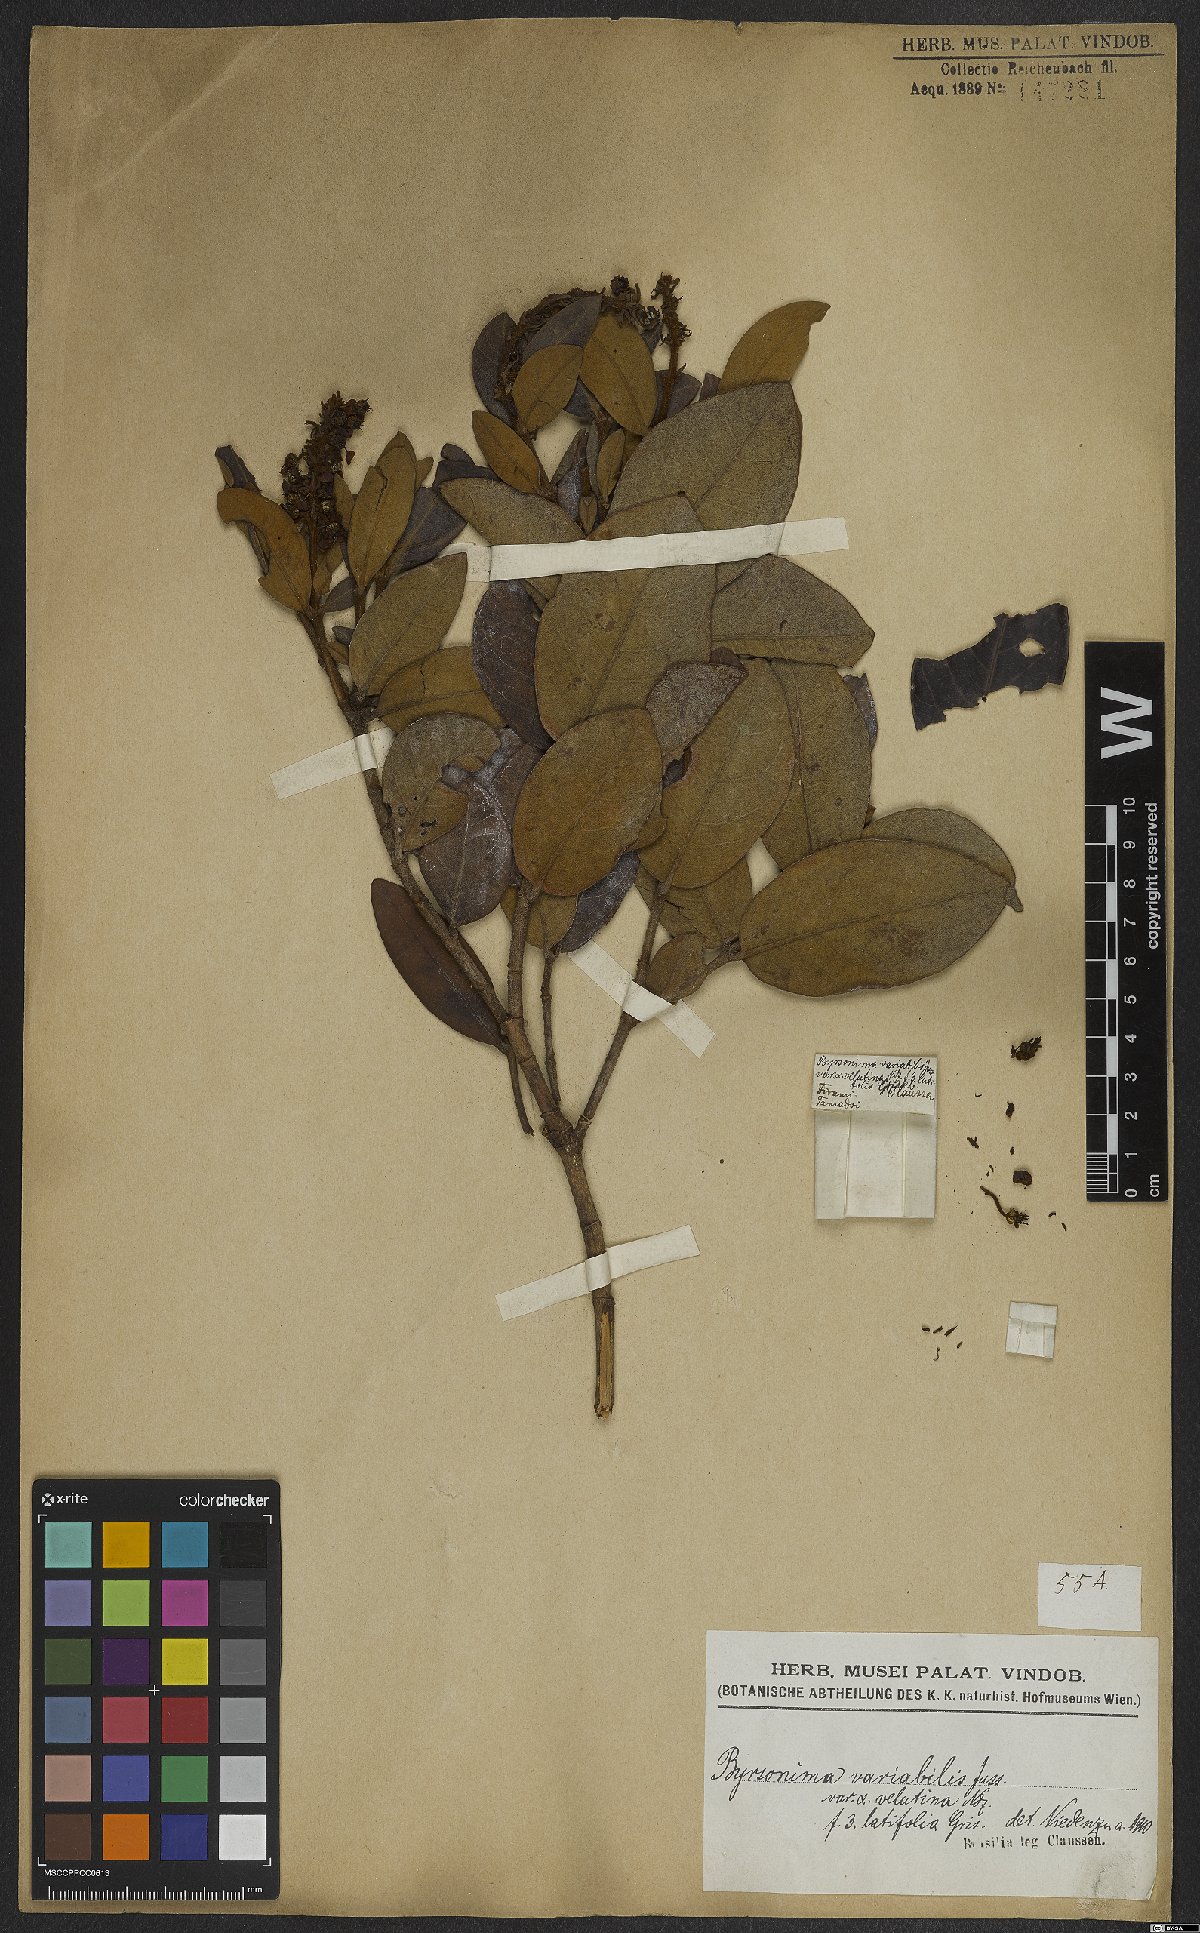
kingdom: Plantae
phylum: Tracheophyta
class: Magnoliopsida
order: Malpighiales
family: Malpighiaceae
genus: Byrsonima
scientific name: Byrsonima variabilis
